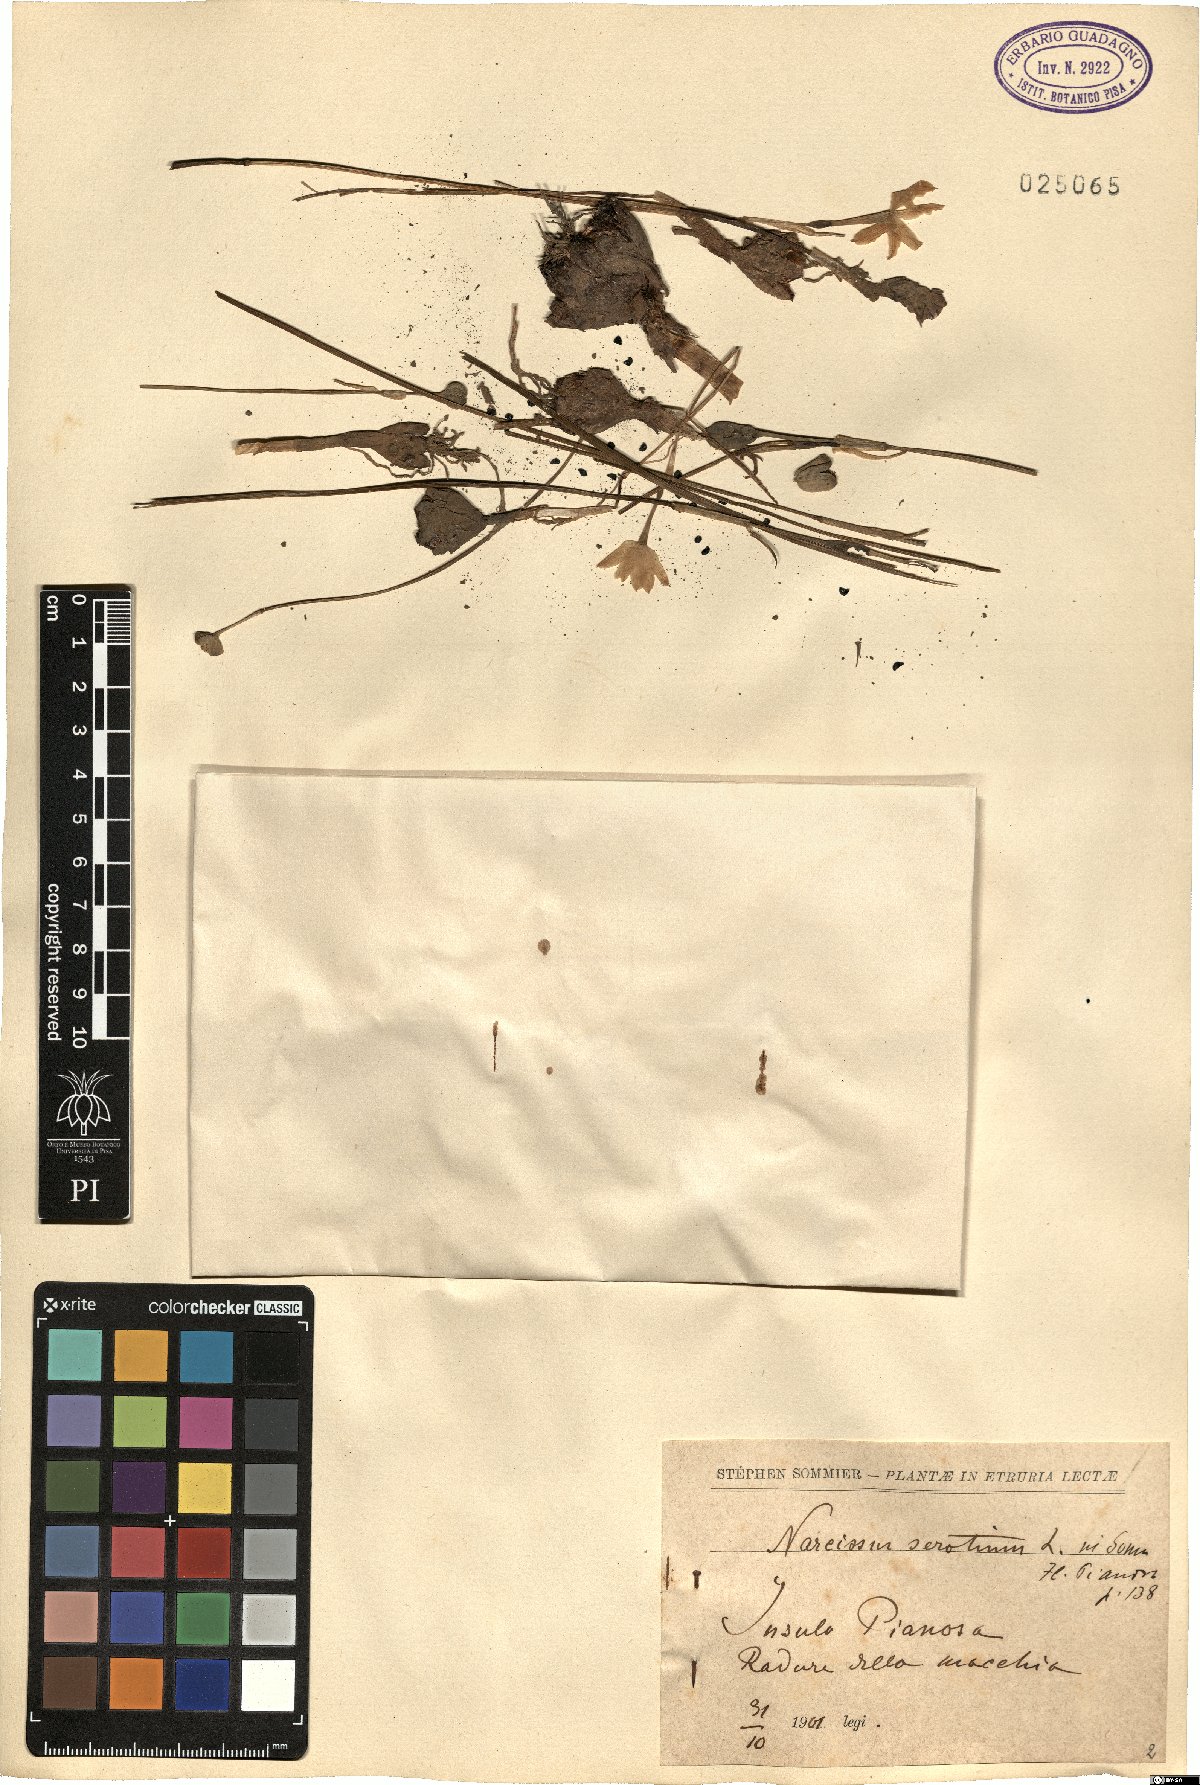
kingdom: Plantae
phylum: Tracheophyta
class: Liliopsida
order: Asparagales
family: Amaryllidaceae
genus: Narcissus
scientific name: Narcissus serotinus
